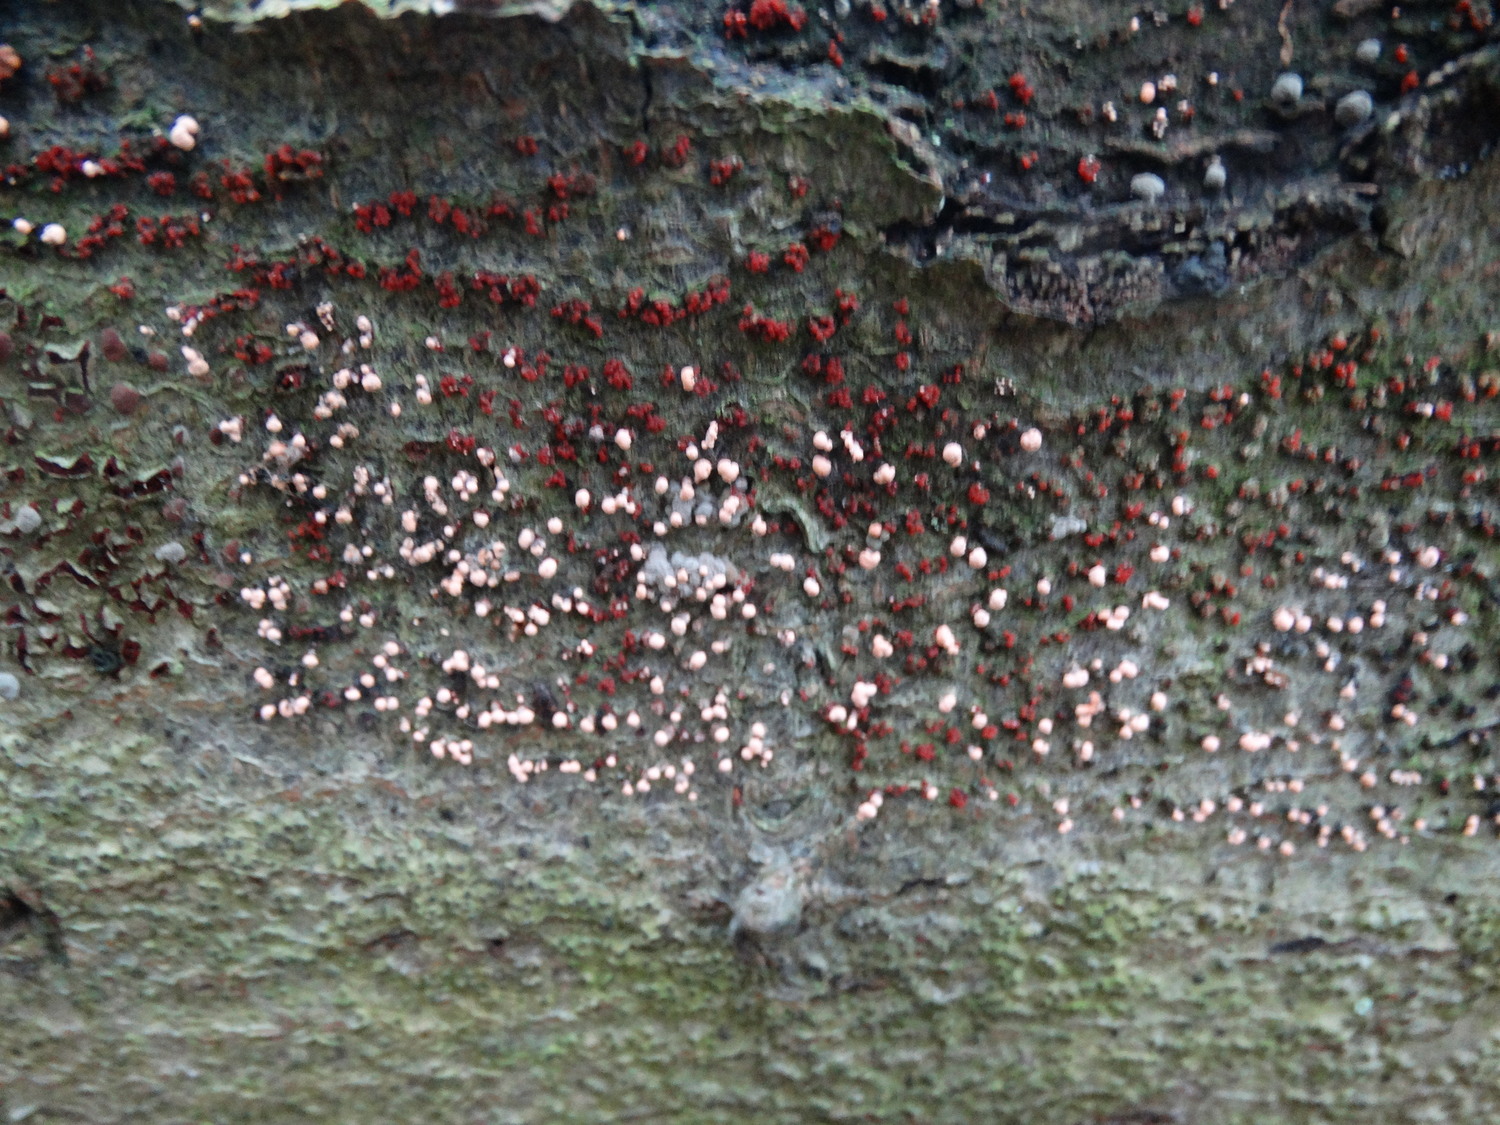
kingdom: Fungi
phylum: Ascomycota
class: Sordariomycetes
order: Hypocreales
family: Nectriaceae
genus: Nectria
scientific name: Nectria cinnabarina
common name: almindelig cinnobersvamp
